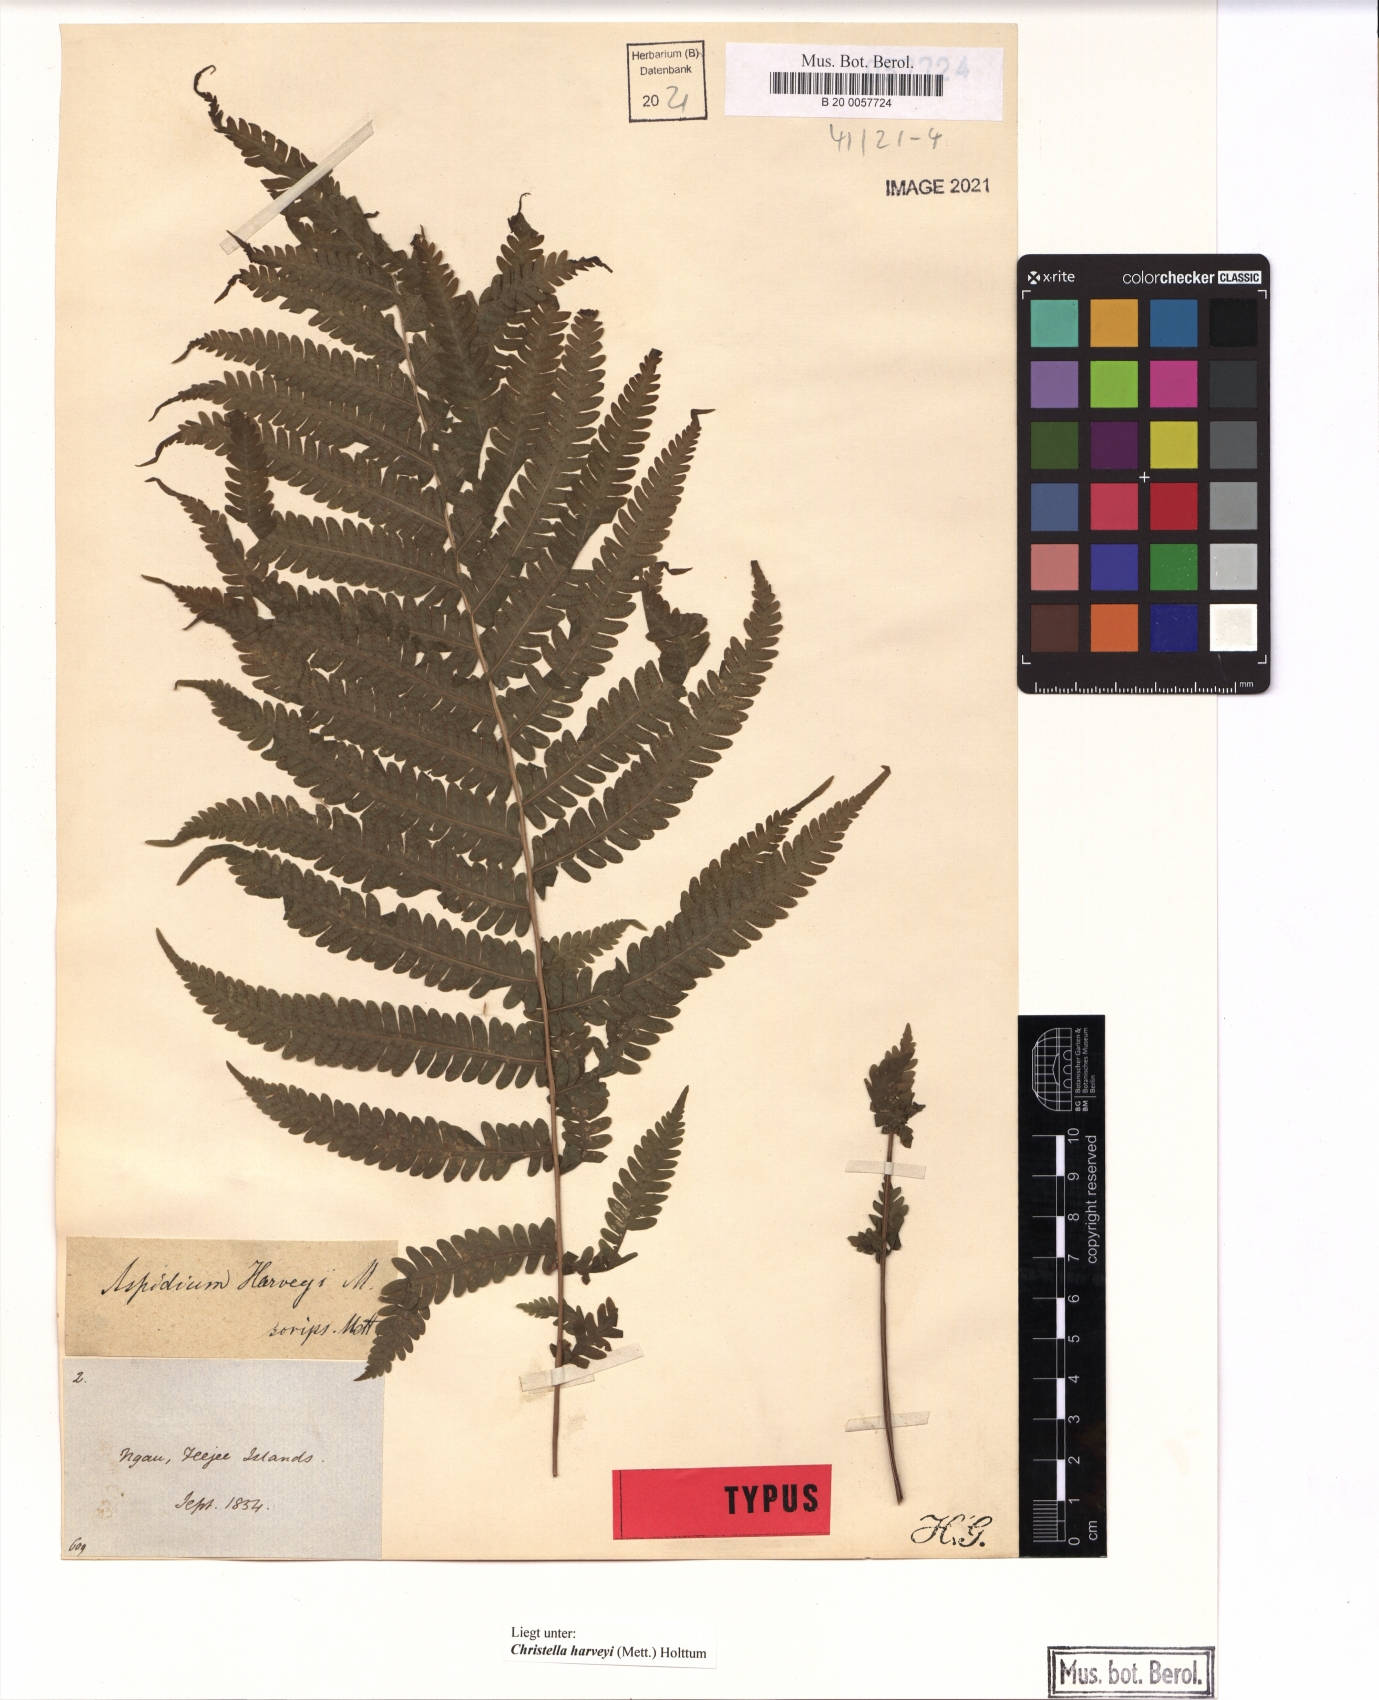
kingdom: Plantae
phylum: Tracheophyta
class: Polypodiopsida
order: Polypodiales
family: Thelypteridaceae
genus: Christella
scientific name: Christella harveyi
